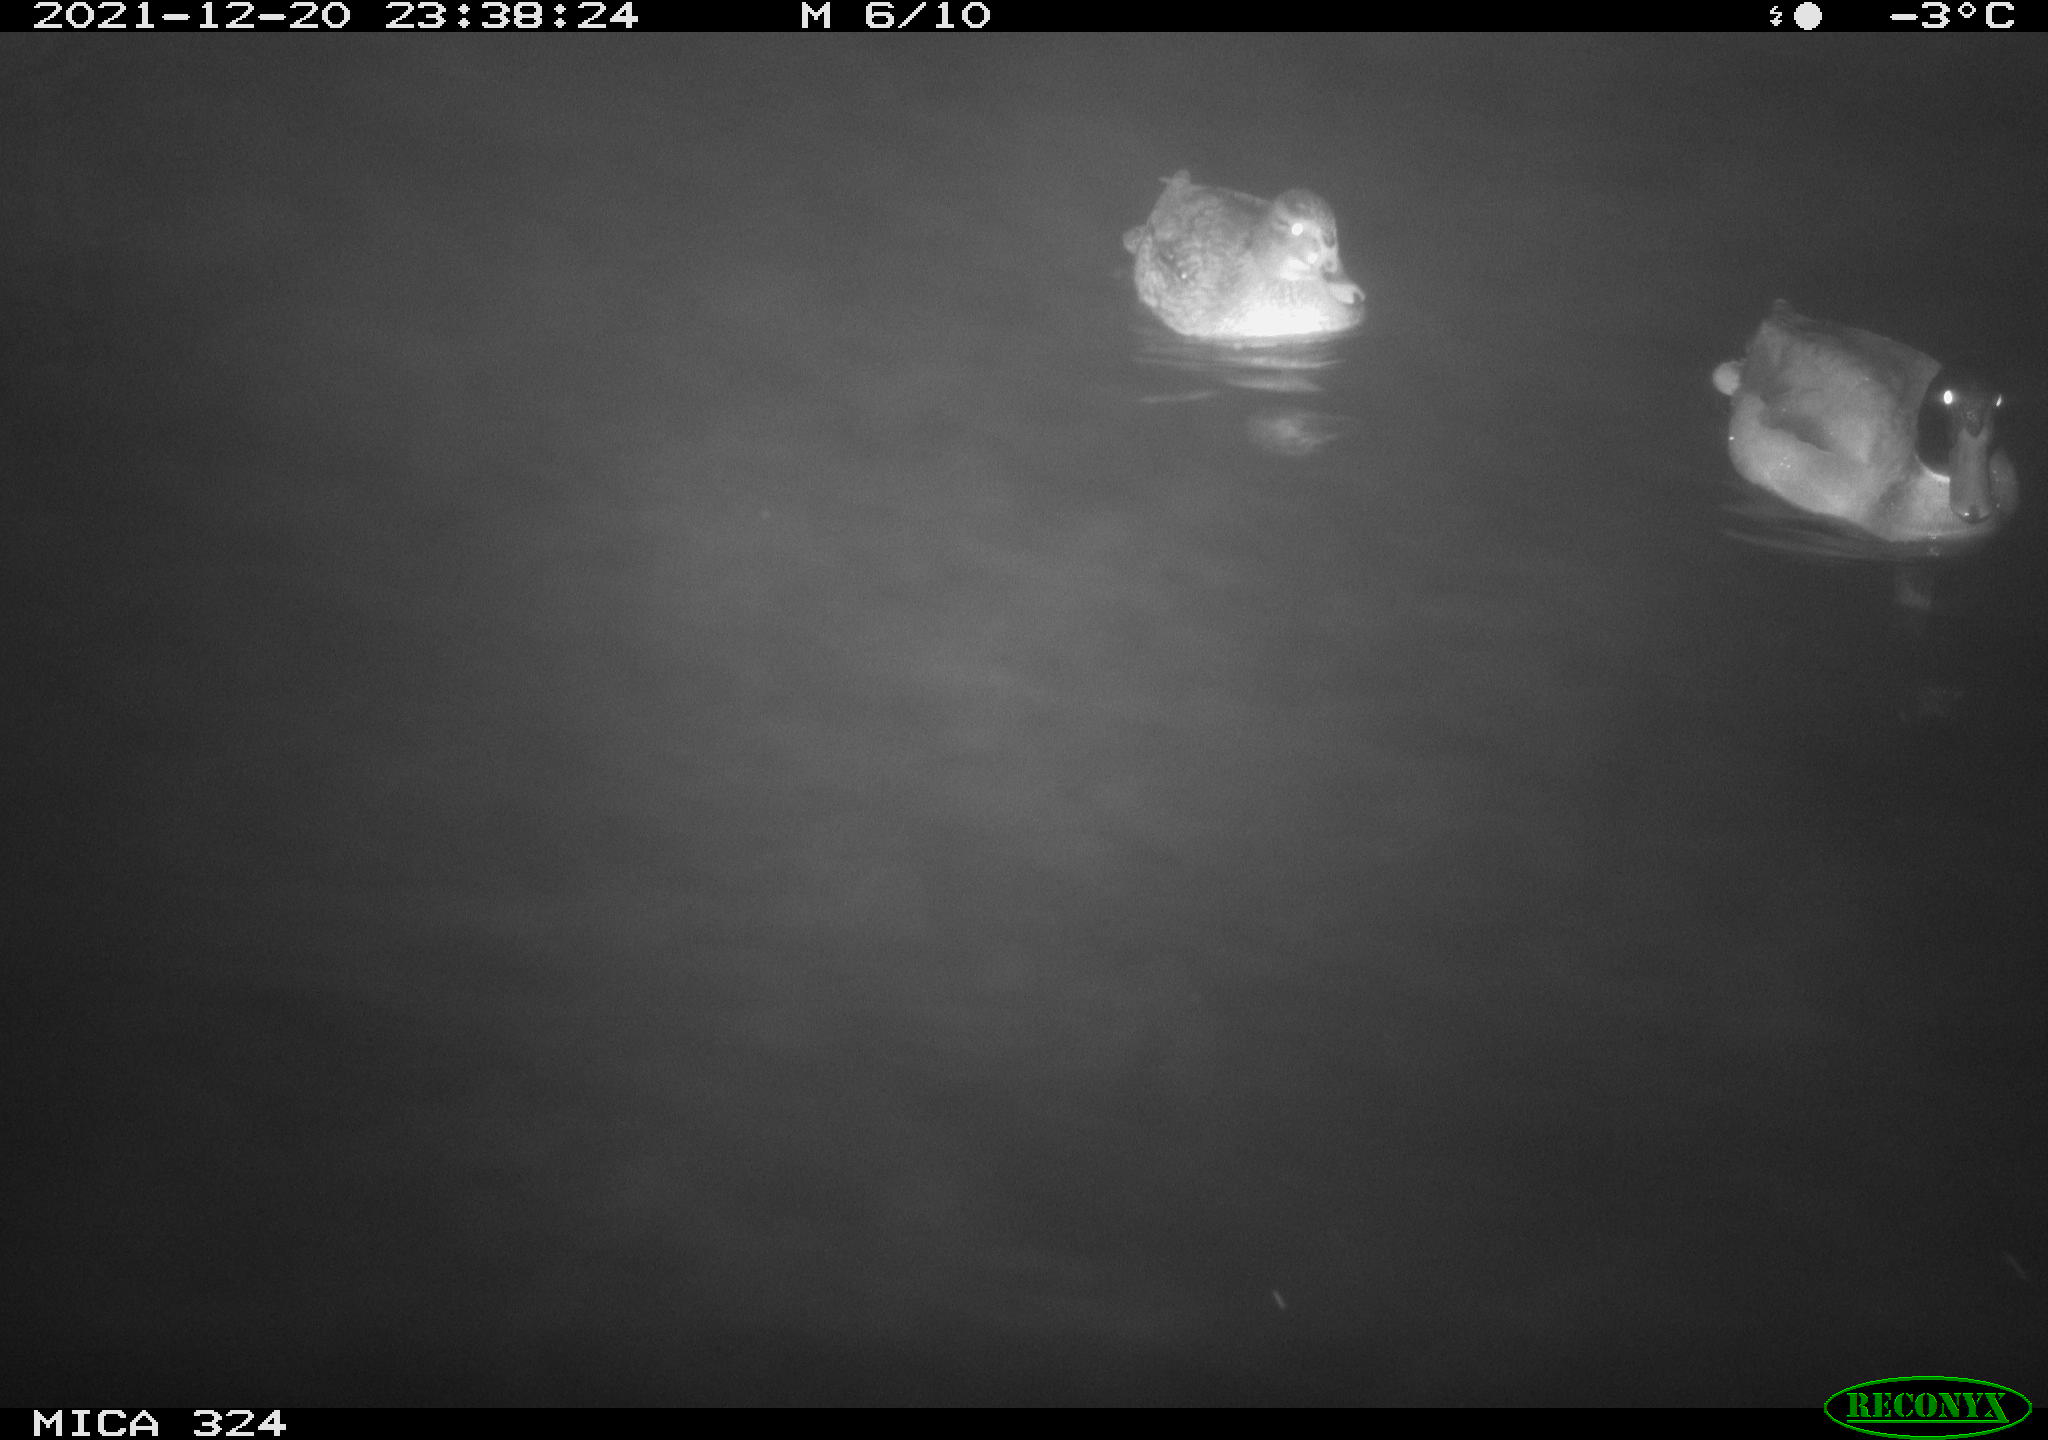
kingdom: Animalia
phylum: Chordata
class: Aves
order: Anseriformes
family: Anatidae
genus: Anas
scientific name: Anas platyrhynchos
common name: Mallard
